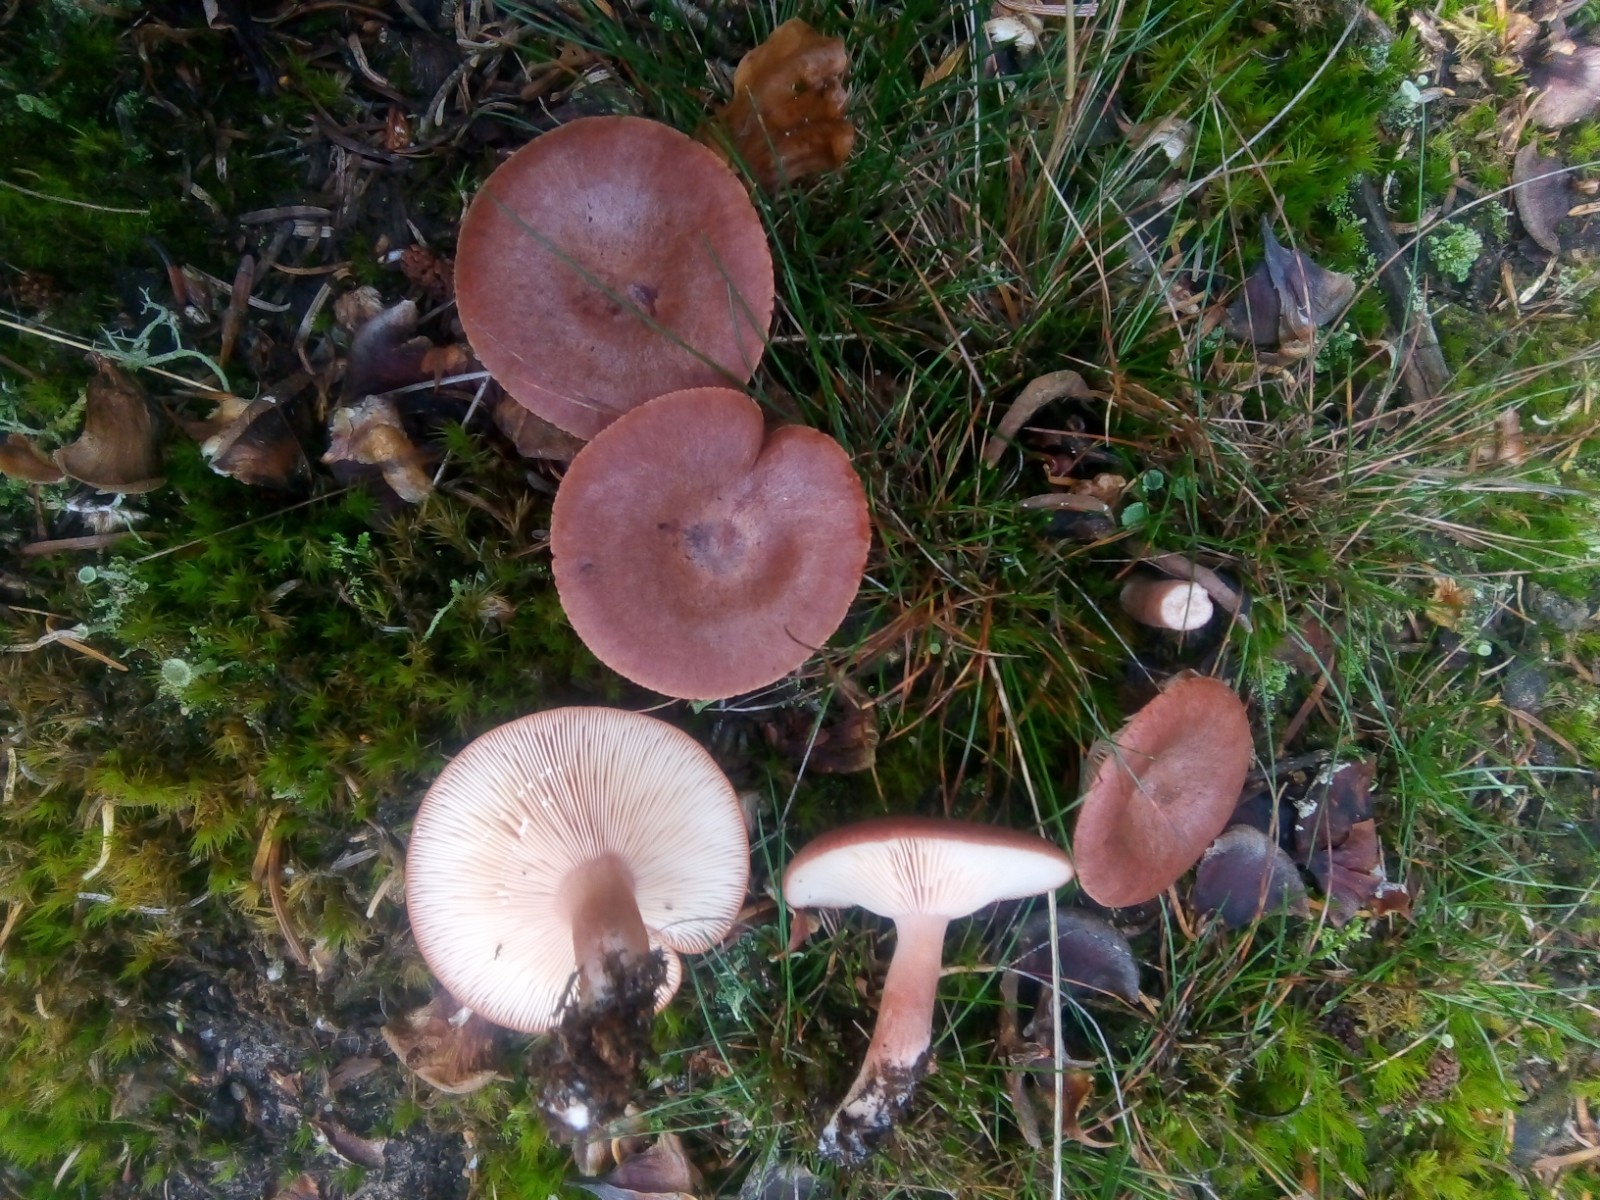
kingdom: Fungi
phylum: Basidiomycota
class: Agaricomycetes
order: Russulales
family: Russulaceae
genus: Lactarius
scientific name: Lactarius rufus
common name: rødbrun mælkehat
